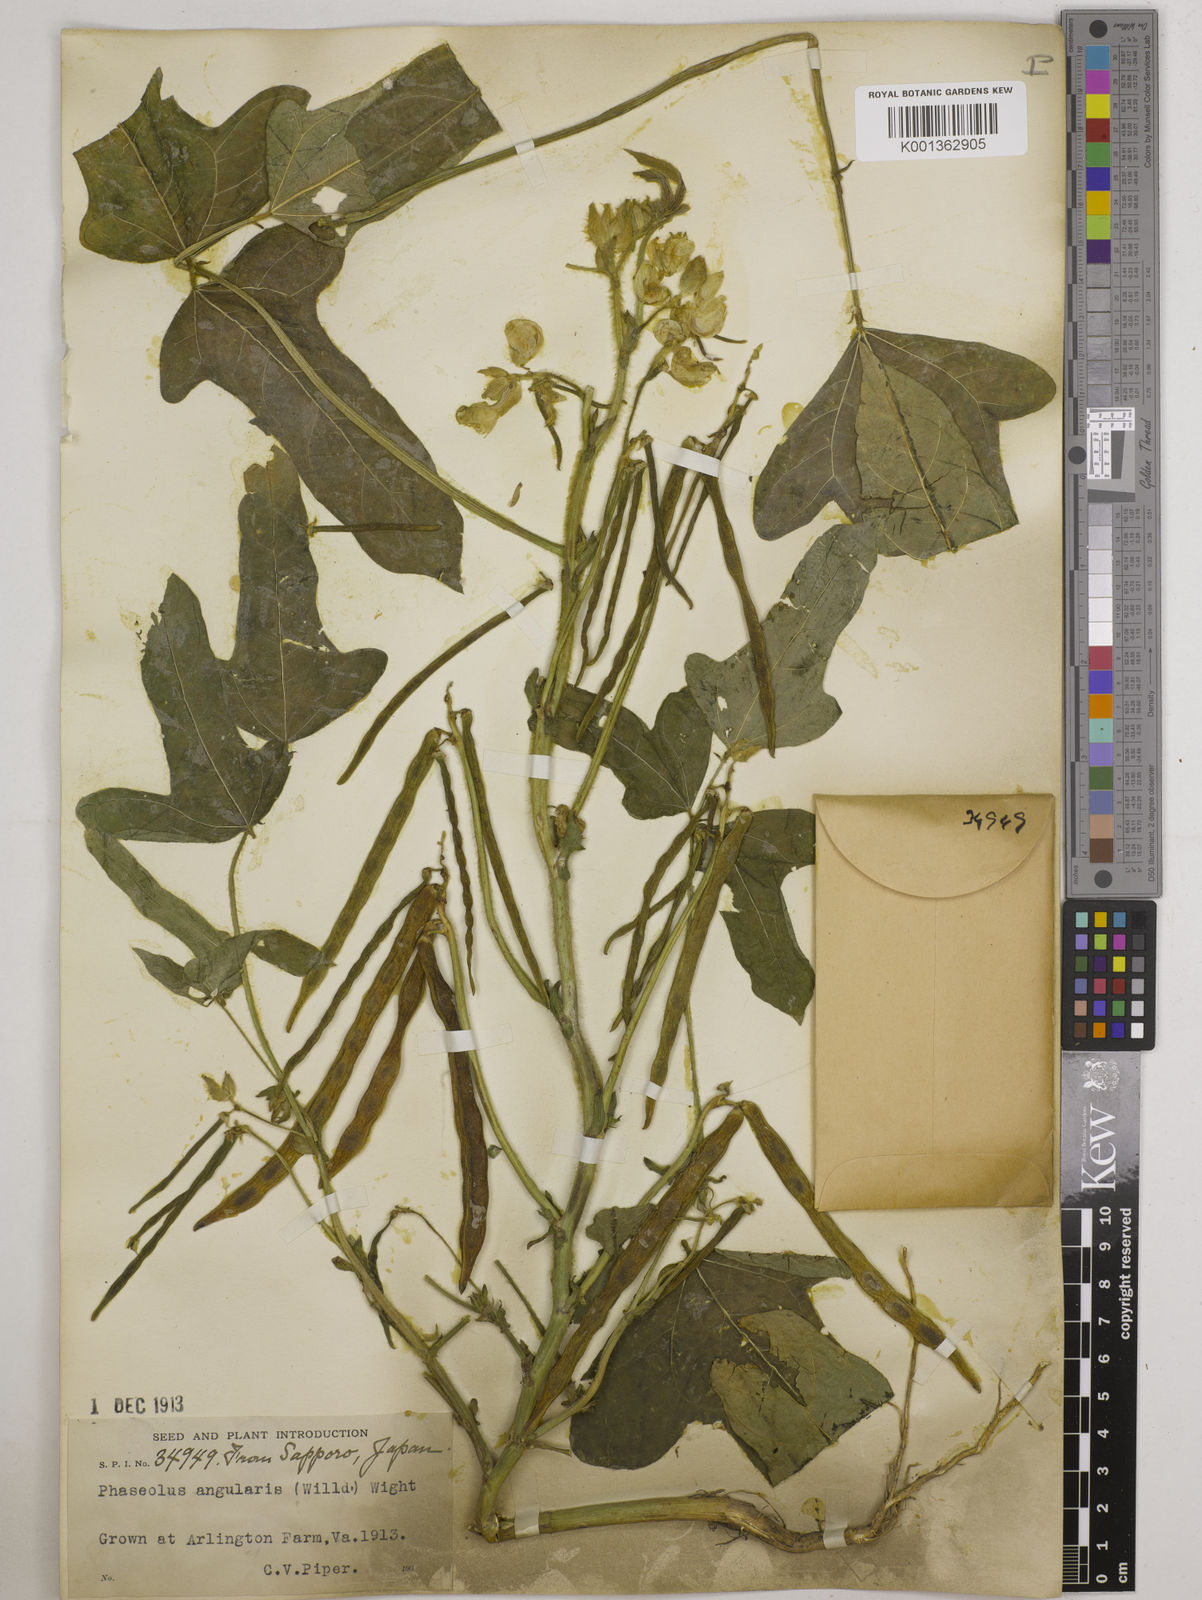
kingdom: Plantae
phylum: Tracheophyta
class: Magnoliopsida
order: Fabales
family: Fabaceae
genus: Vigna
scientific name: Vigna angularis
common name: Adzuki bean
